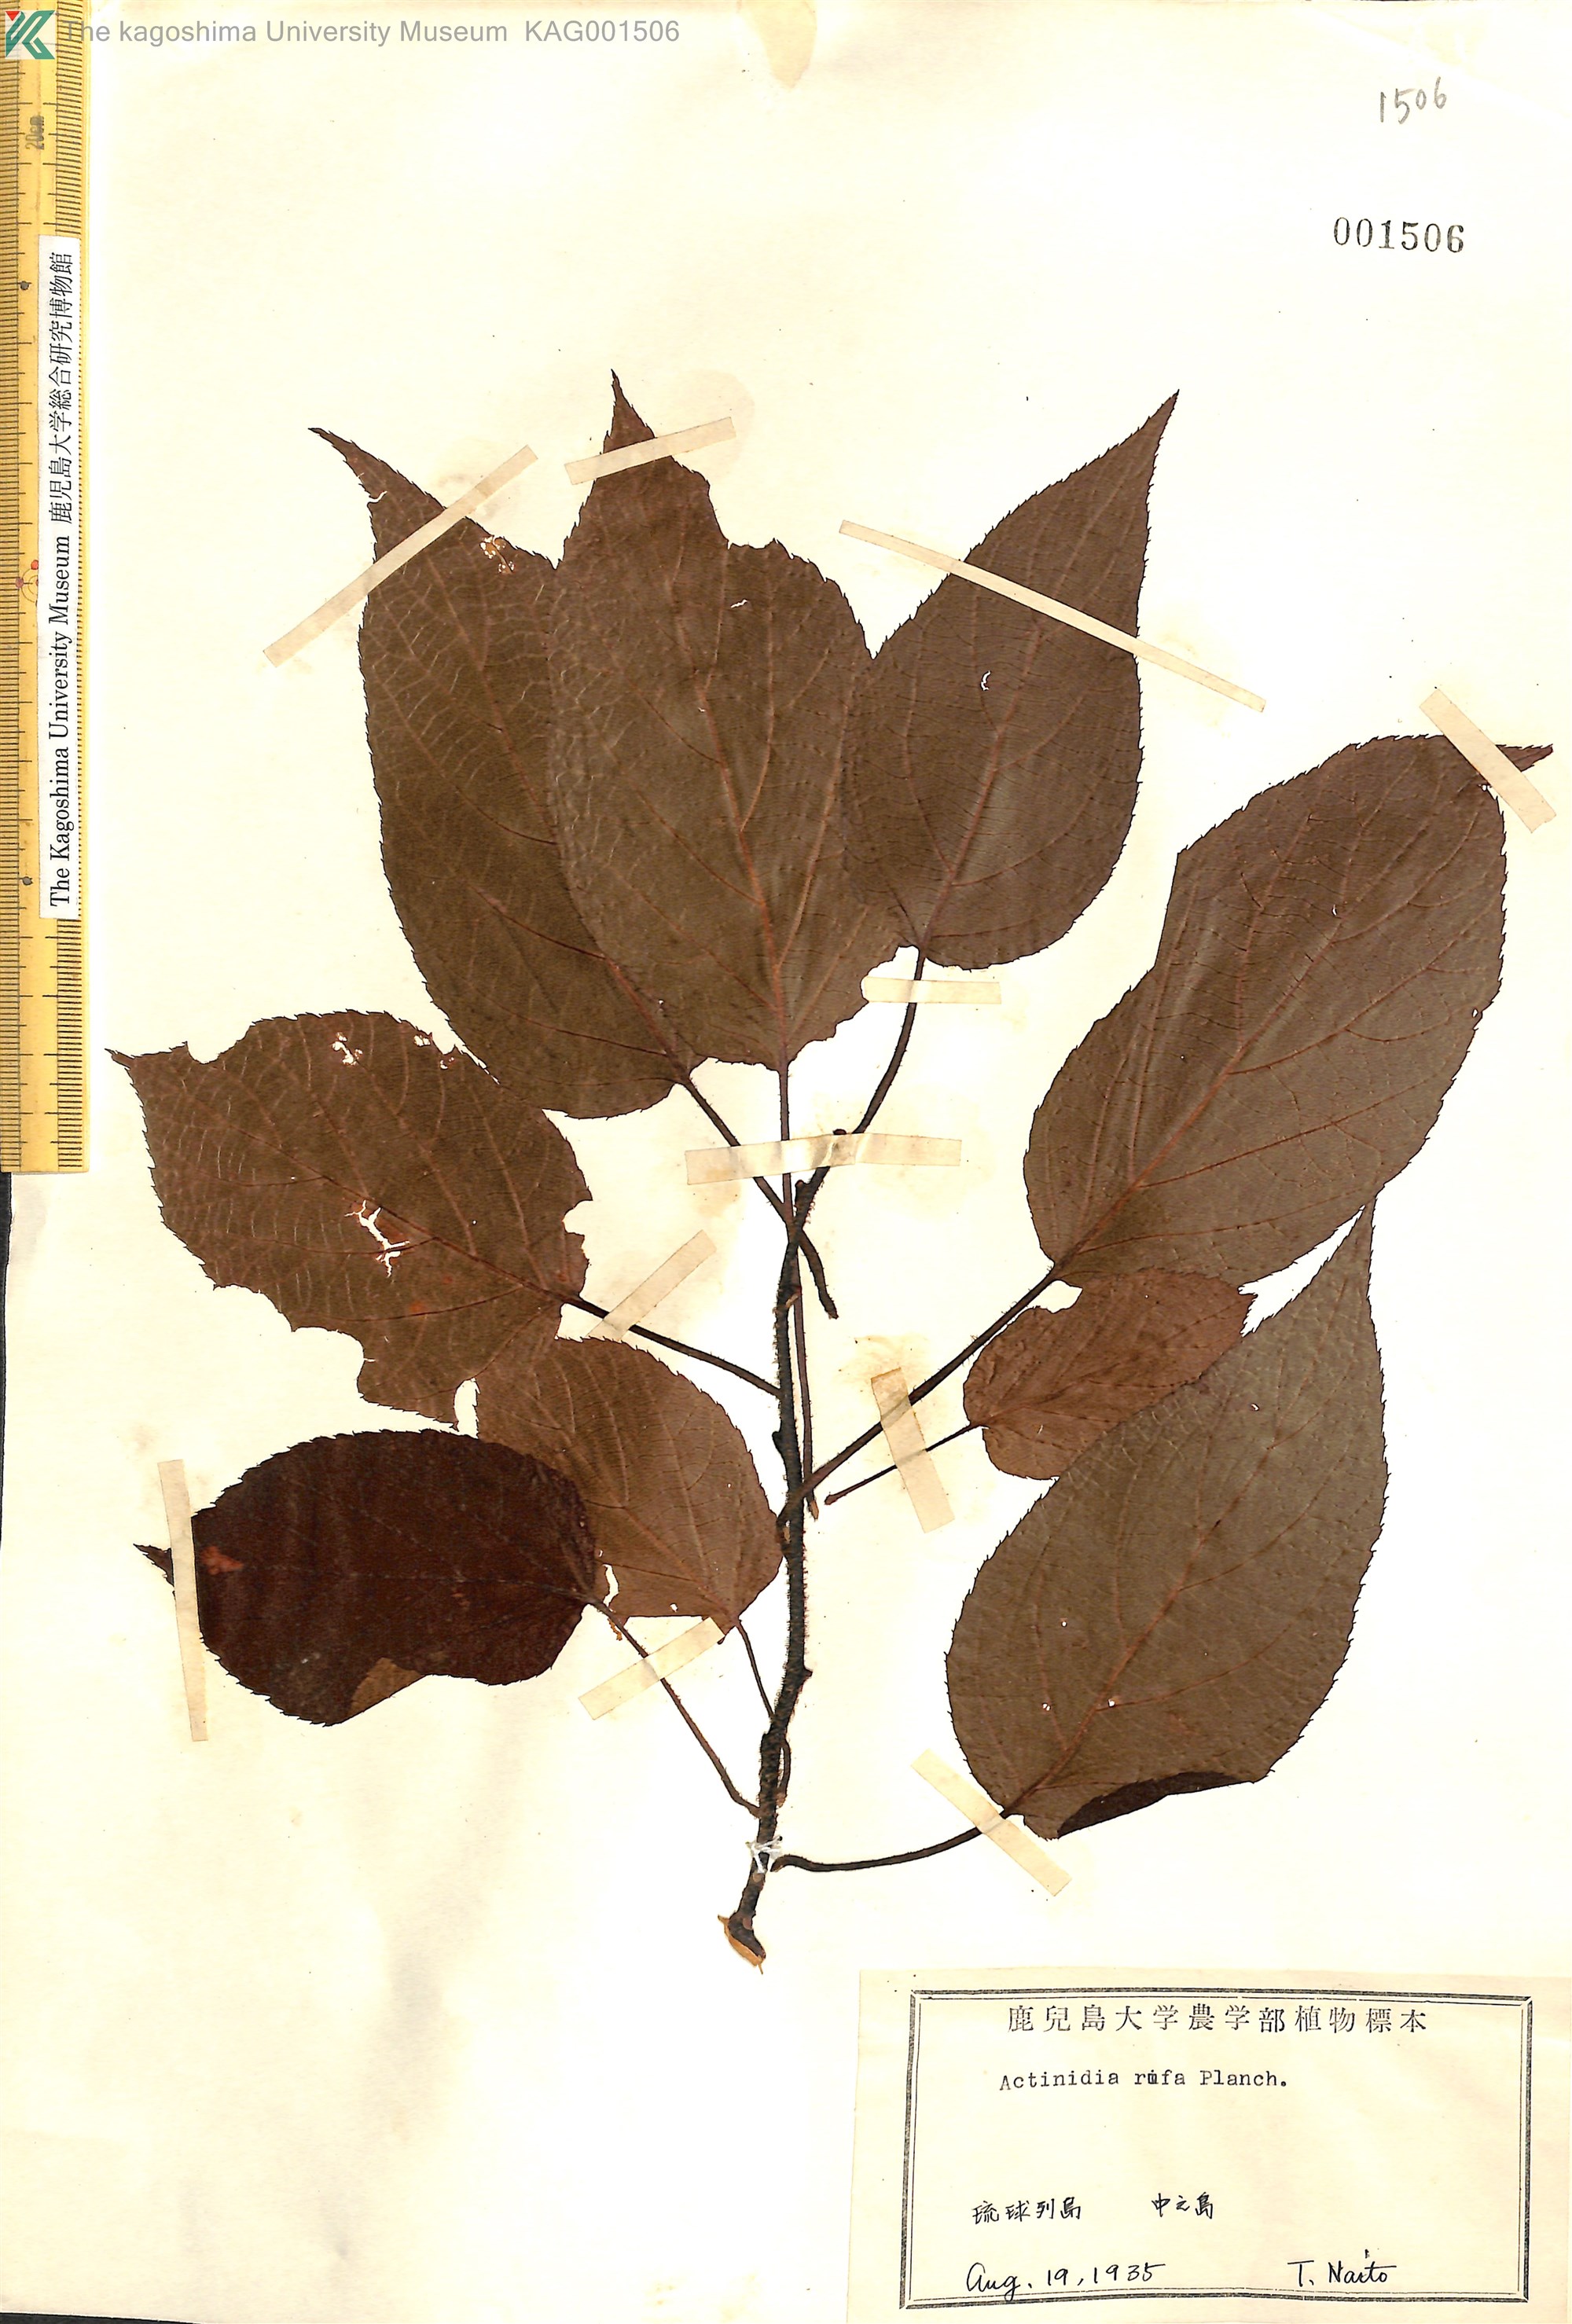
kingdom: Plantae
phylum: Tracheophyta
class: Magnoliopsida
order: Ericales
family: Actinidiaceae
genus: Actinidia
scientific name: Actinidia rufa
